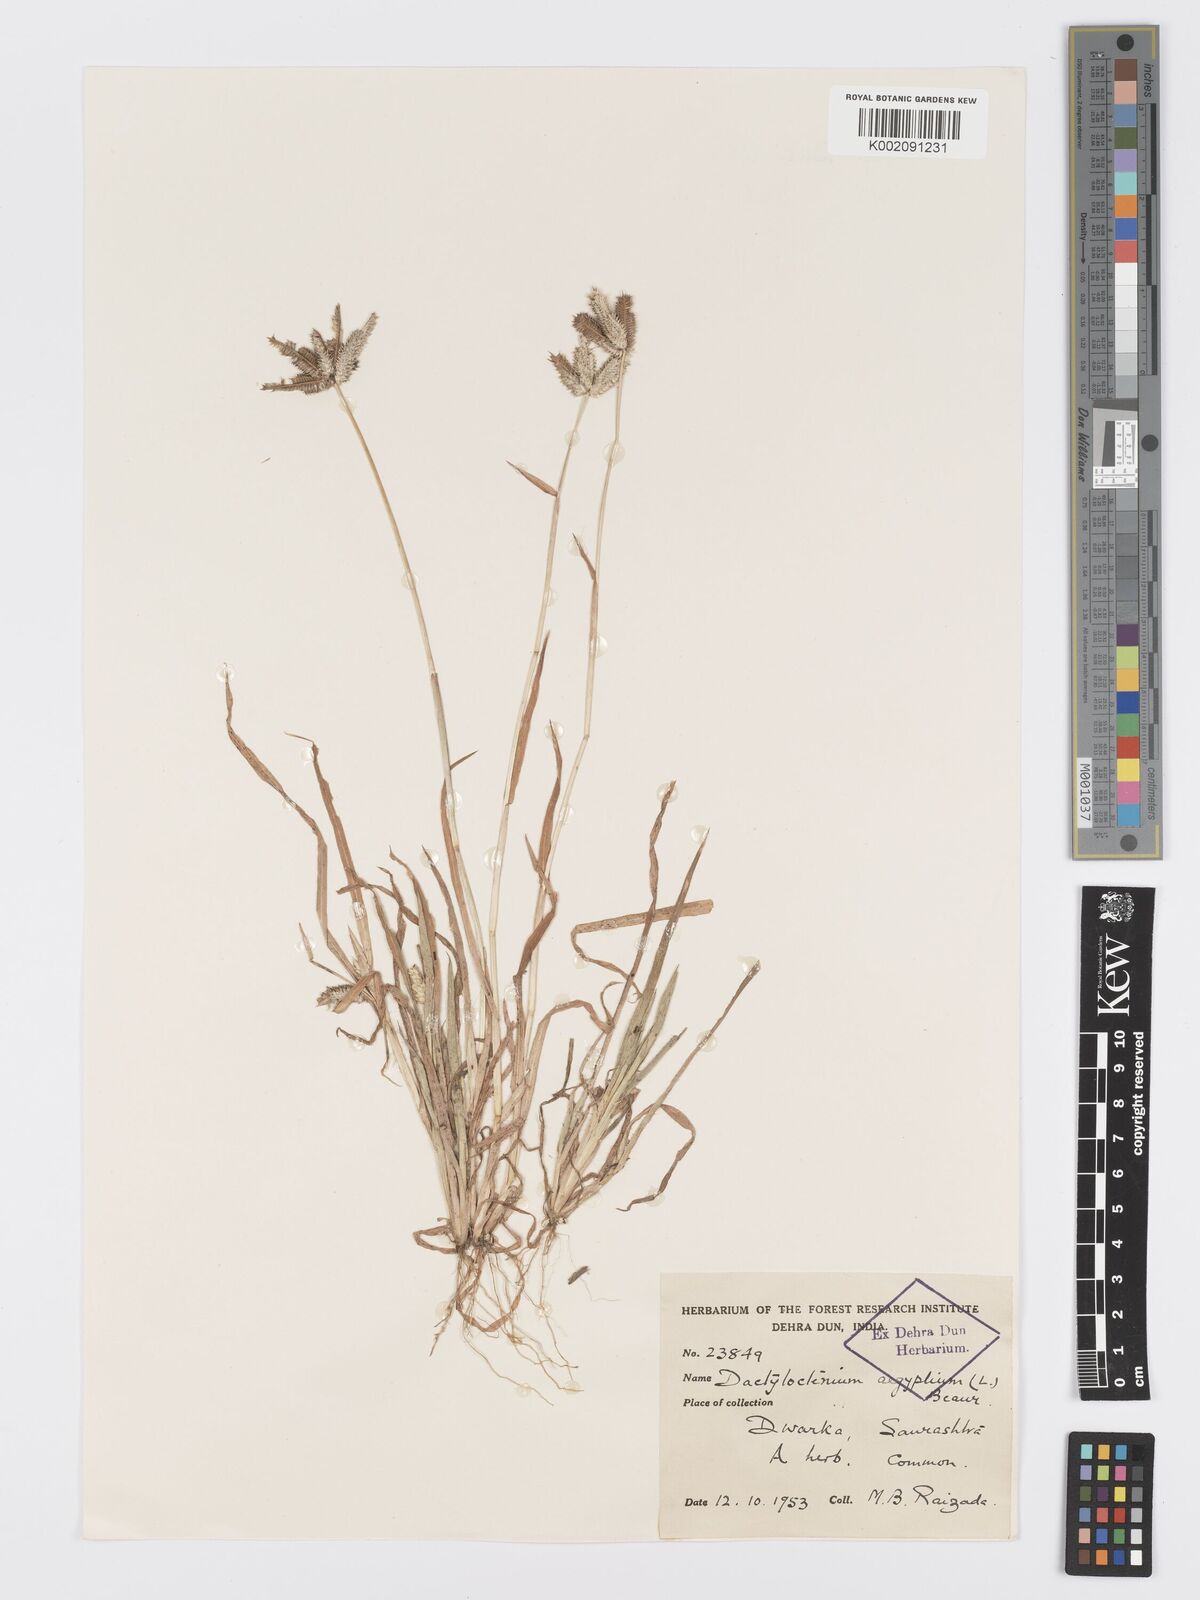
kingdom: Plantae
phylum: Tracheophyta
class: Liliopsida
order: Poales
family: Poaceae
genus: Dactyloctenium
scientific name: Dactyloctenium aegyptium
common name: Egyptian grass
